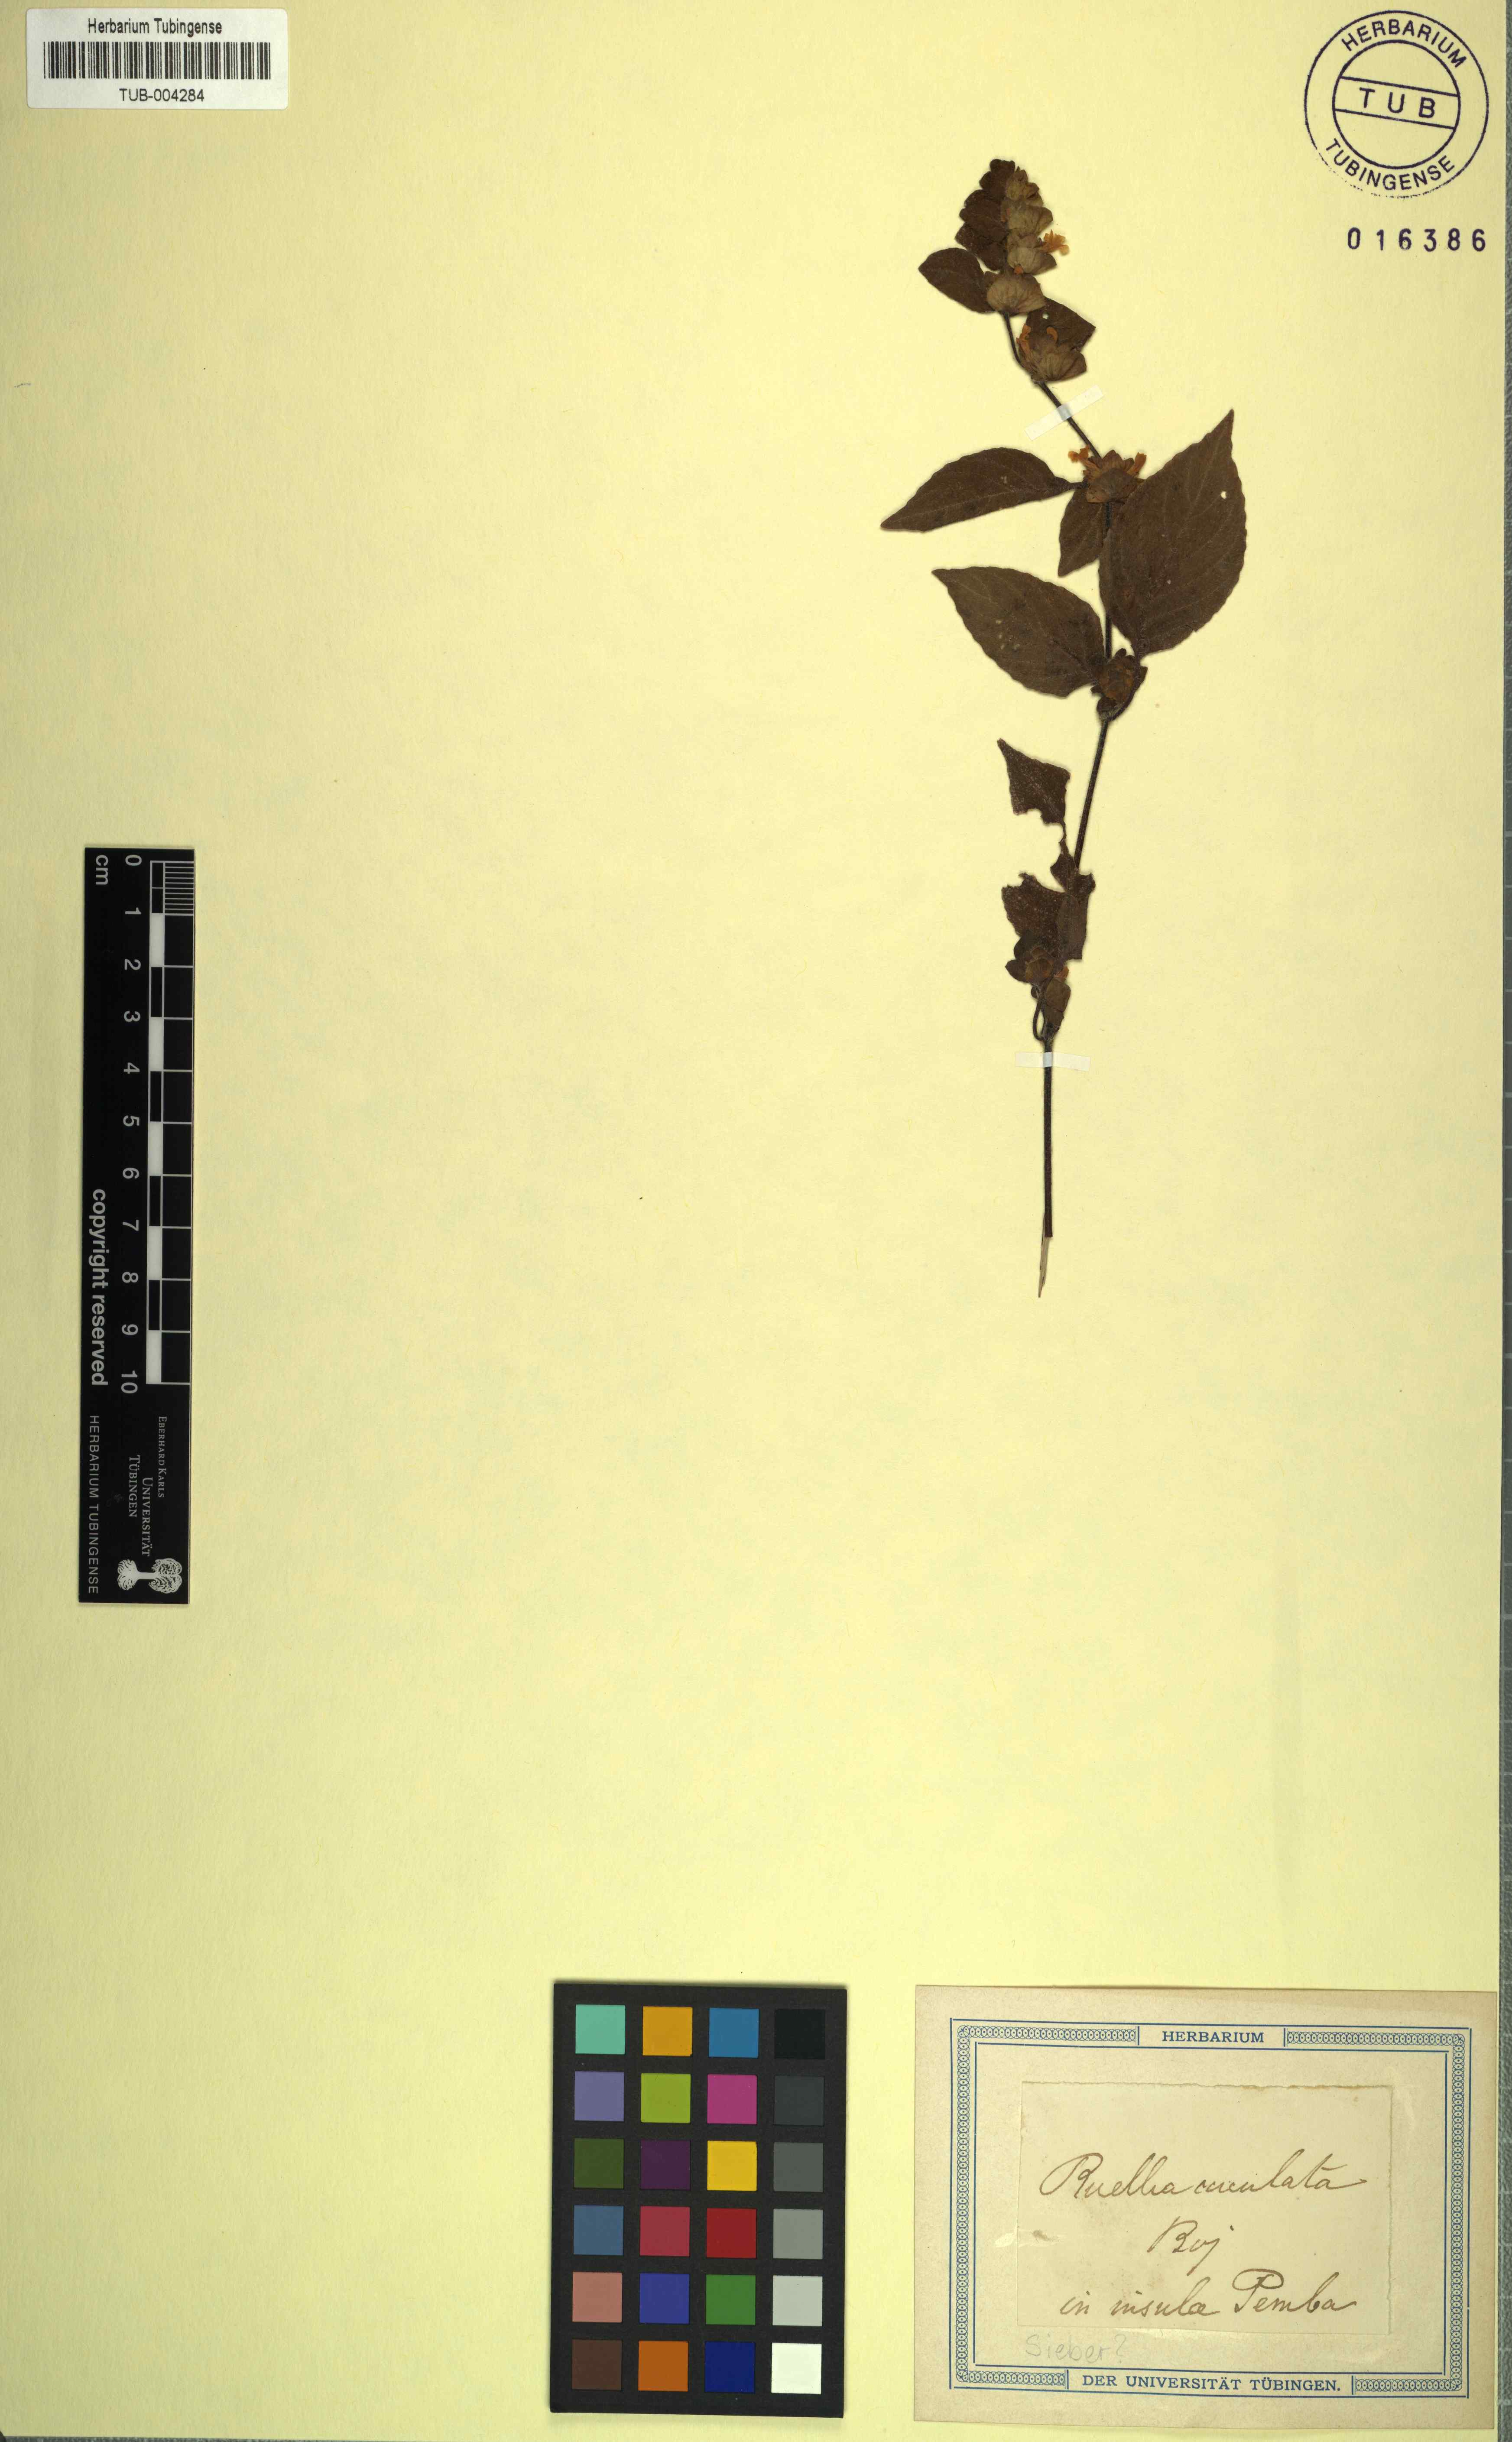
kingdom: Plantae
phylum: Tracheophyta
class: Magnoliopsida
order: Lamiales
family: Acanthaceae
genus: Phaulopsis
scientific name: Phaulopsis dorsiflora
